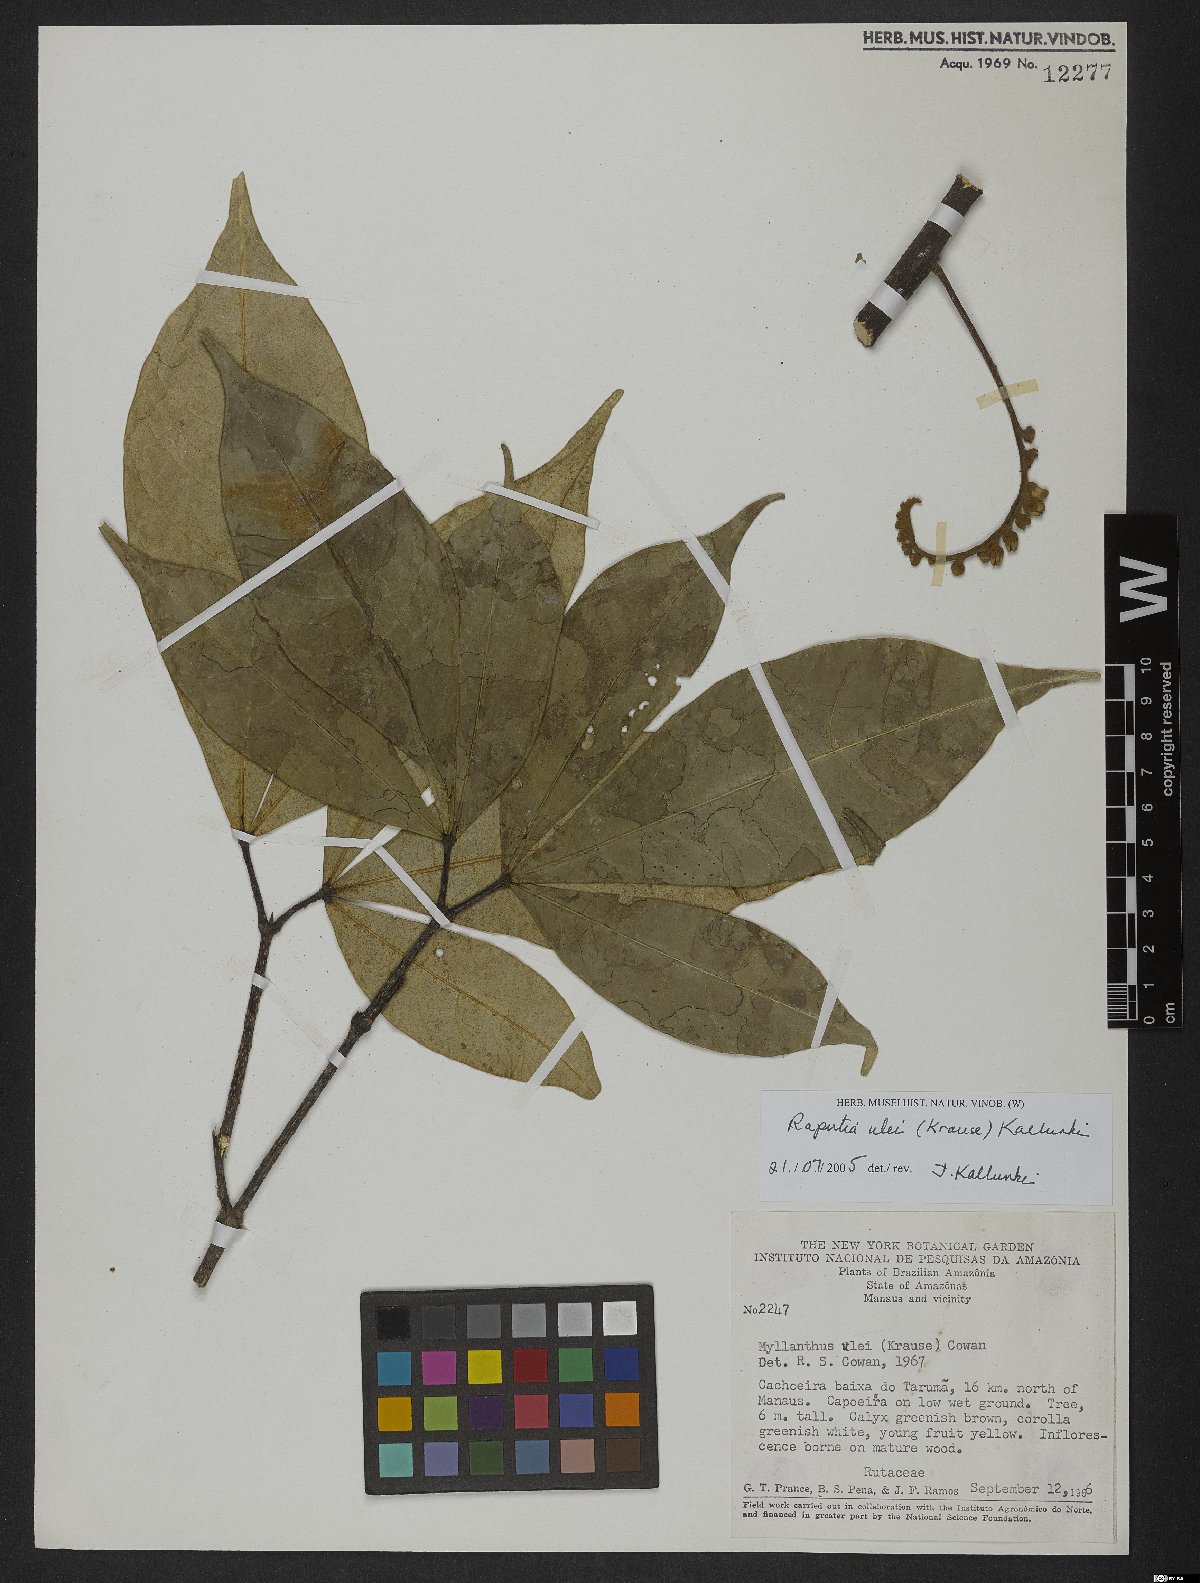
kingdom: Plantae
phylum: Tracheophyta
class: Magnoliopsida
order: Sapindales
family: Rutaceae
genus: Raputia
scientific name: Raputia ulei
